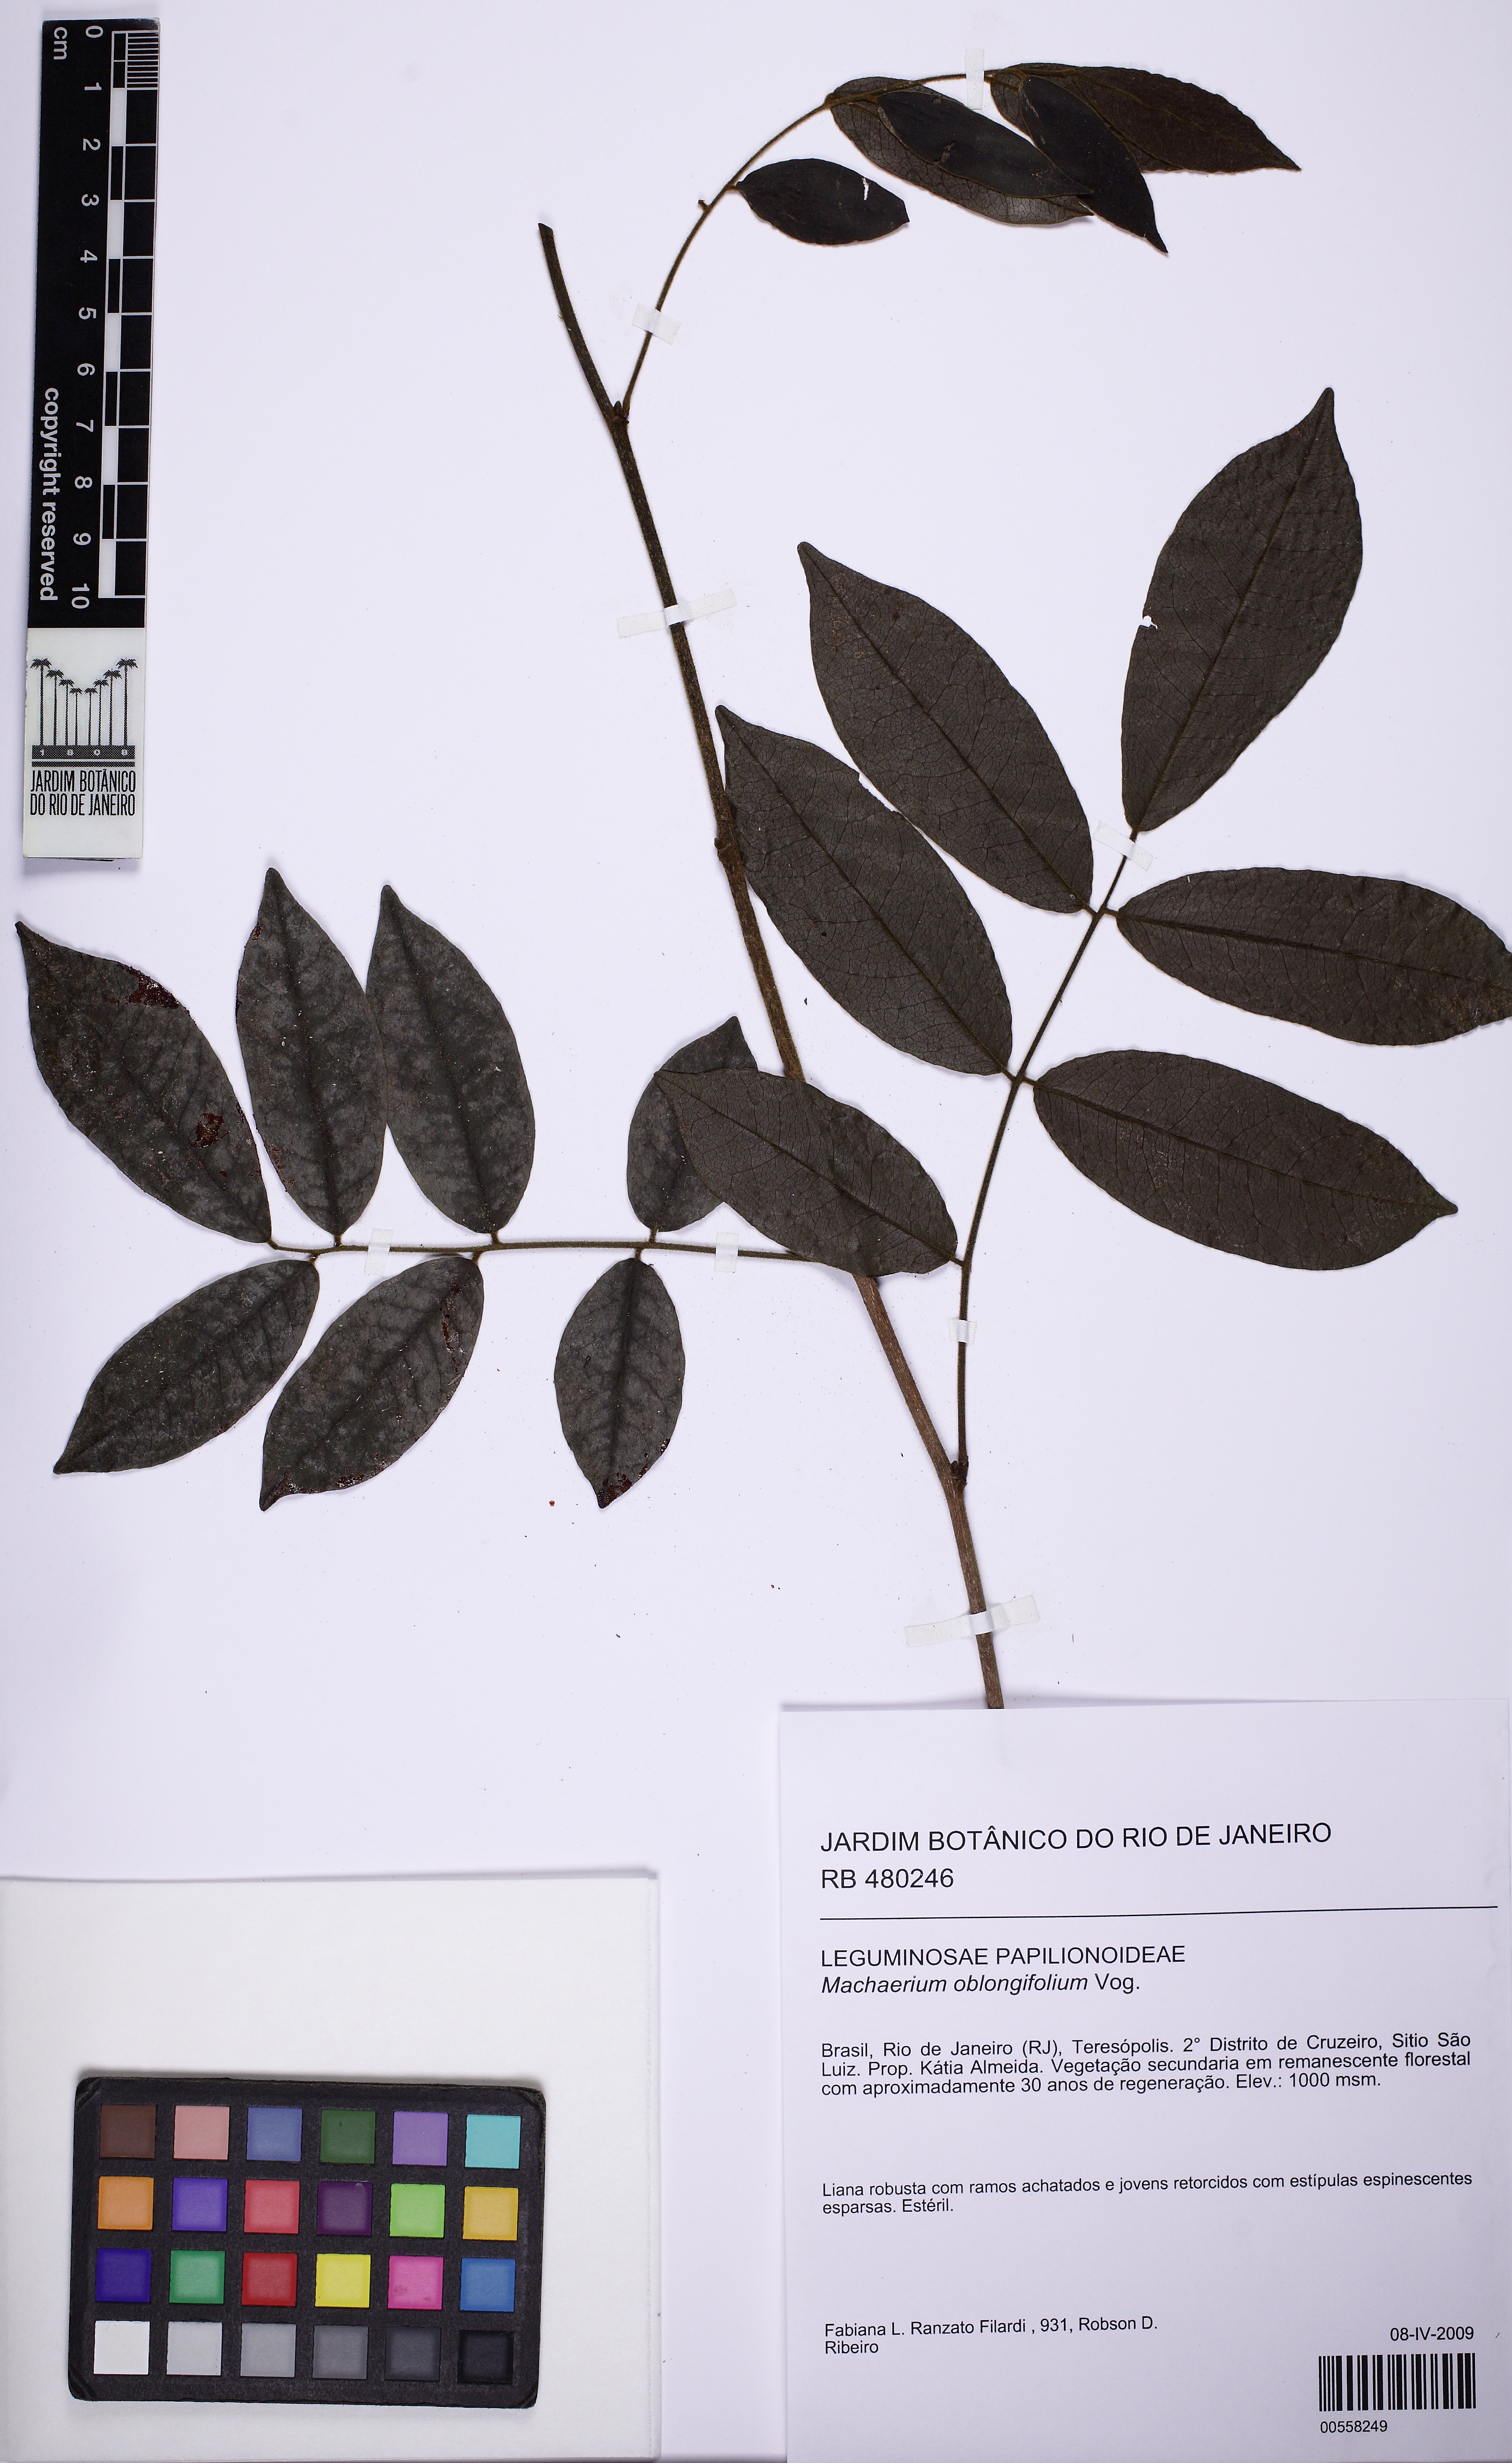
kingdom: Plantae
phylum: Tracheophyta
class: Magnoliopsida
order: Fabales
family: Fabaceae
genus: Machaerium
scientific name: Machaerium oblongifolium
